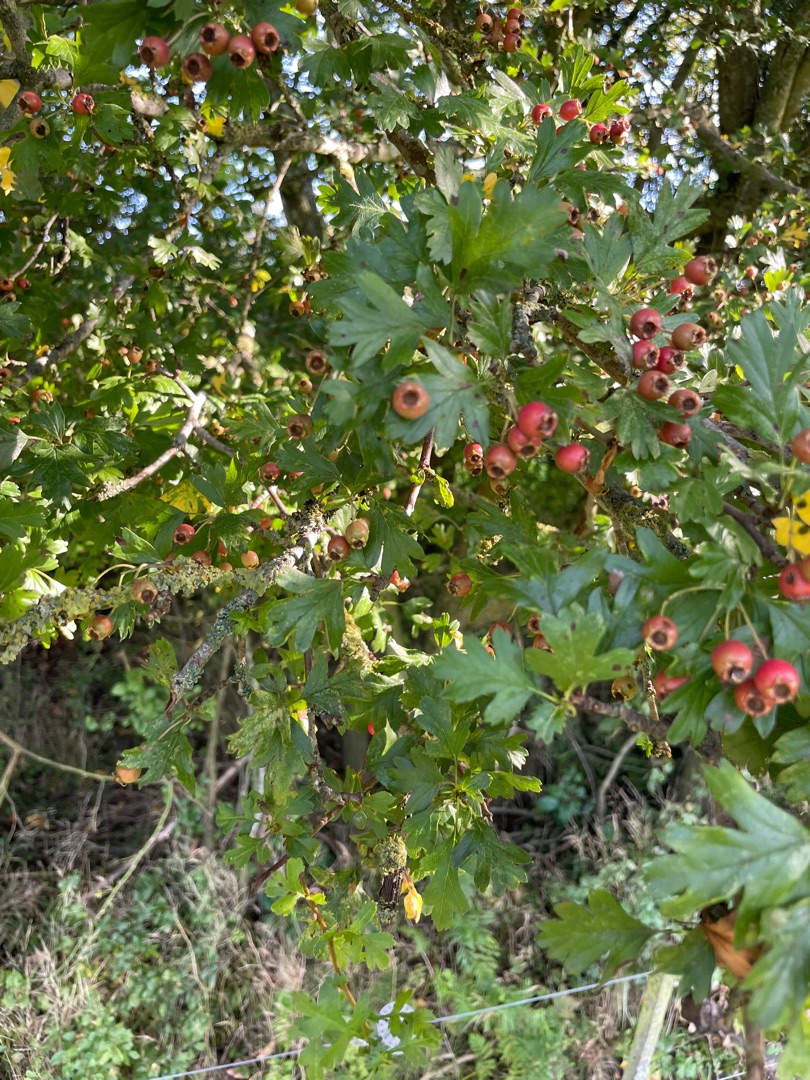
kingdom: Plantae
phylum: Tracheophyta
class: Magnoliopsida
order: Rosales
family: Rosaceae
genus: Crataegus
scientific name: Crataegus monogyna
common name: Engriflet hvidtjørn
